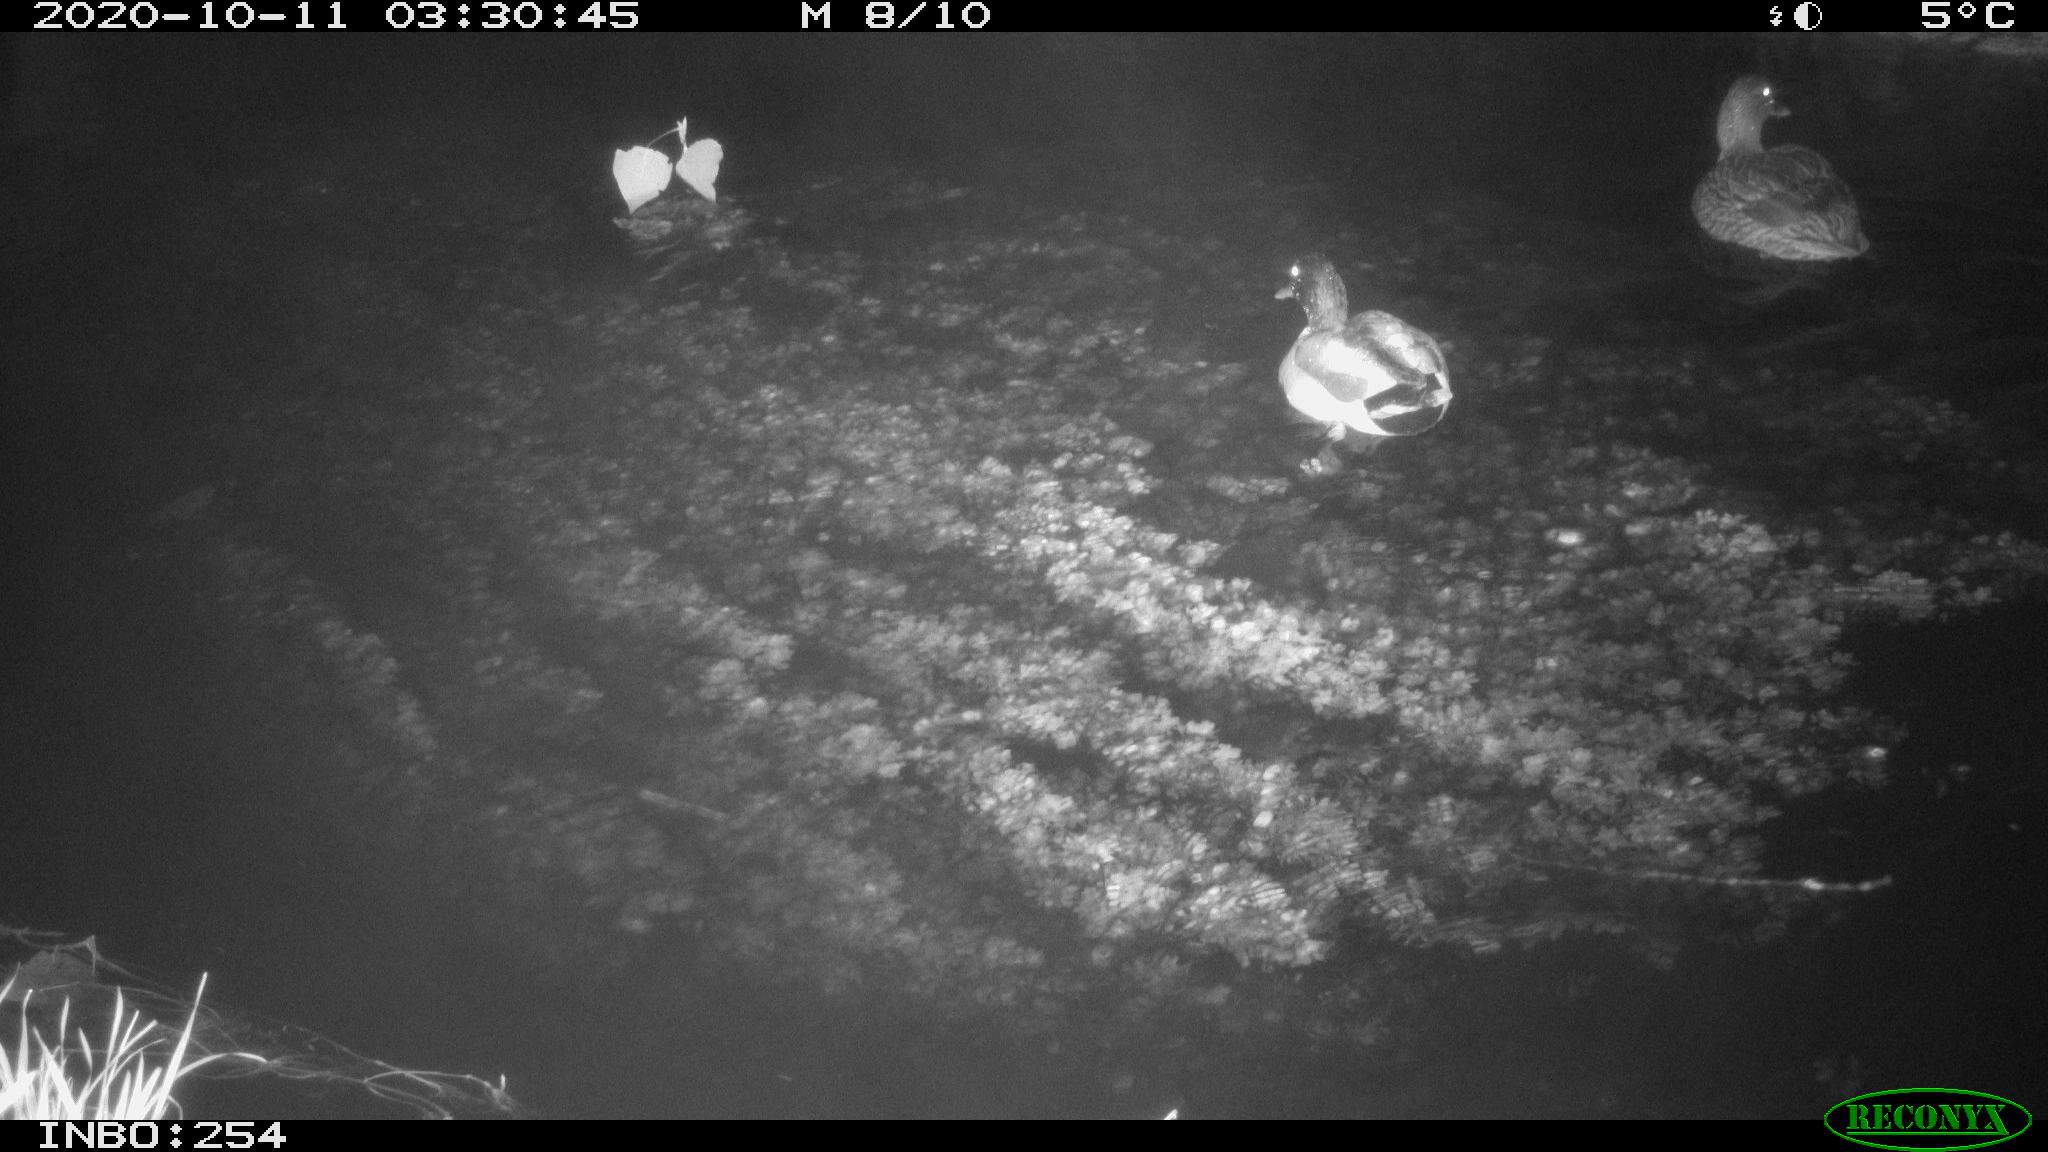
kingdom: Animalia
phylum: Chordata
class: Aves
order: Anseriformes
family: Anatidae
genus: Anas
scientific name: Anas platyrhynchos
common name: Mallard
